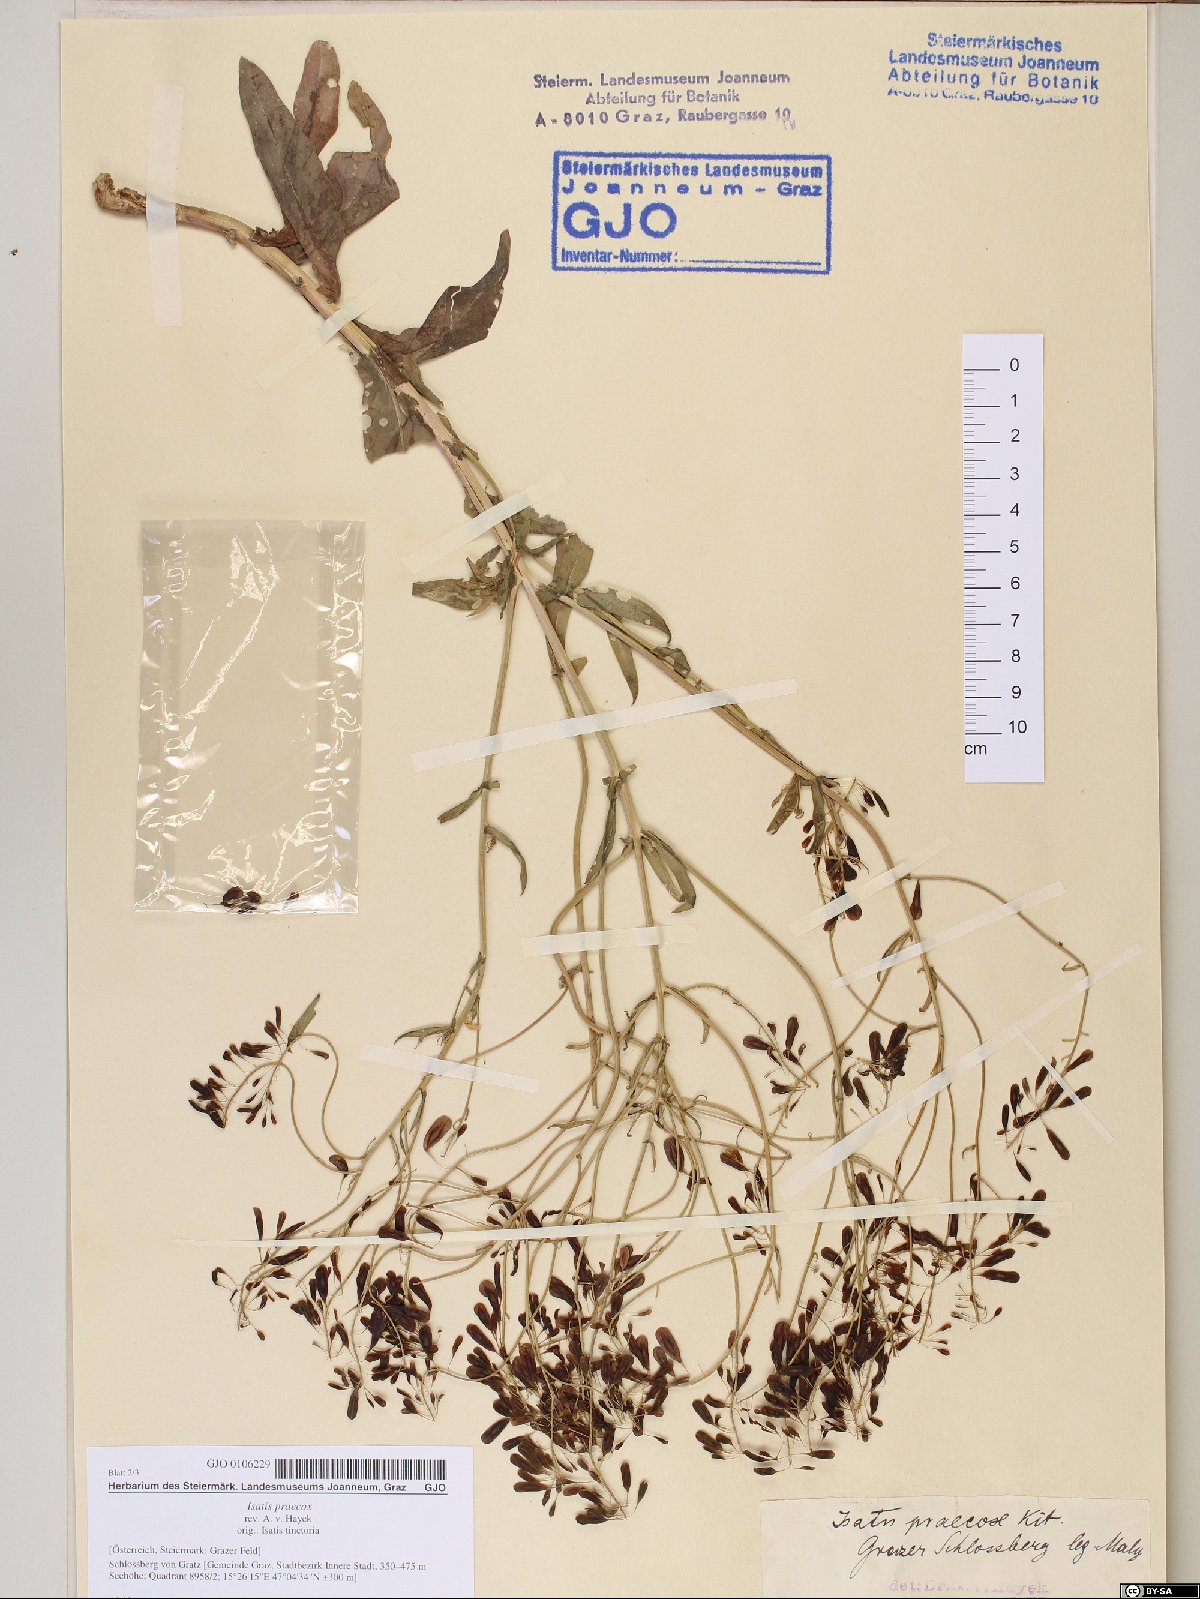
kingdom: Plantae
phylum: Tracheophyta
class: Magnoliopsida
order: Brassicales
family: Brassicaceae
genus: Isatis
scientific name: Isatis tinctoria
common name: Woad
